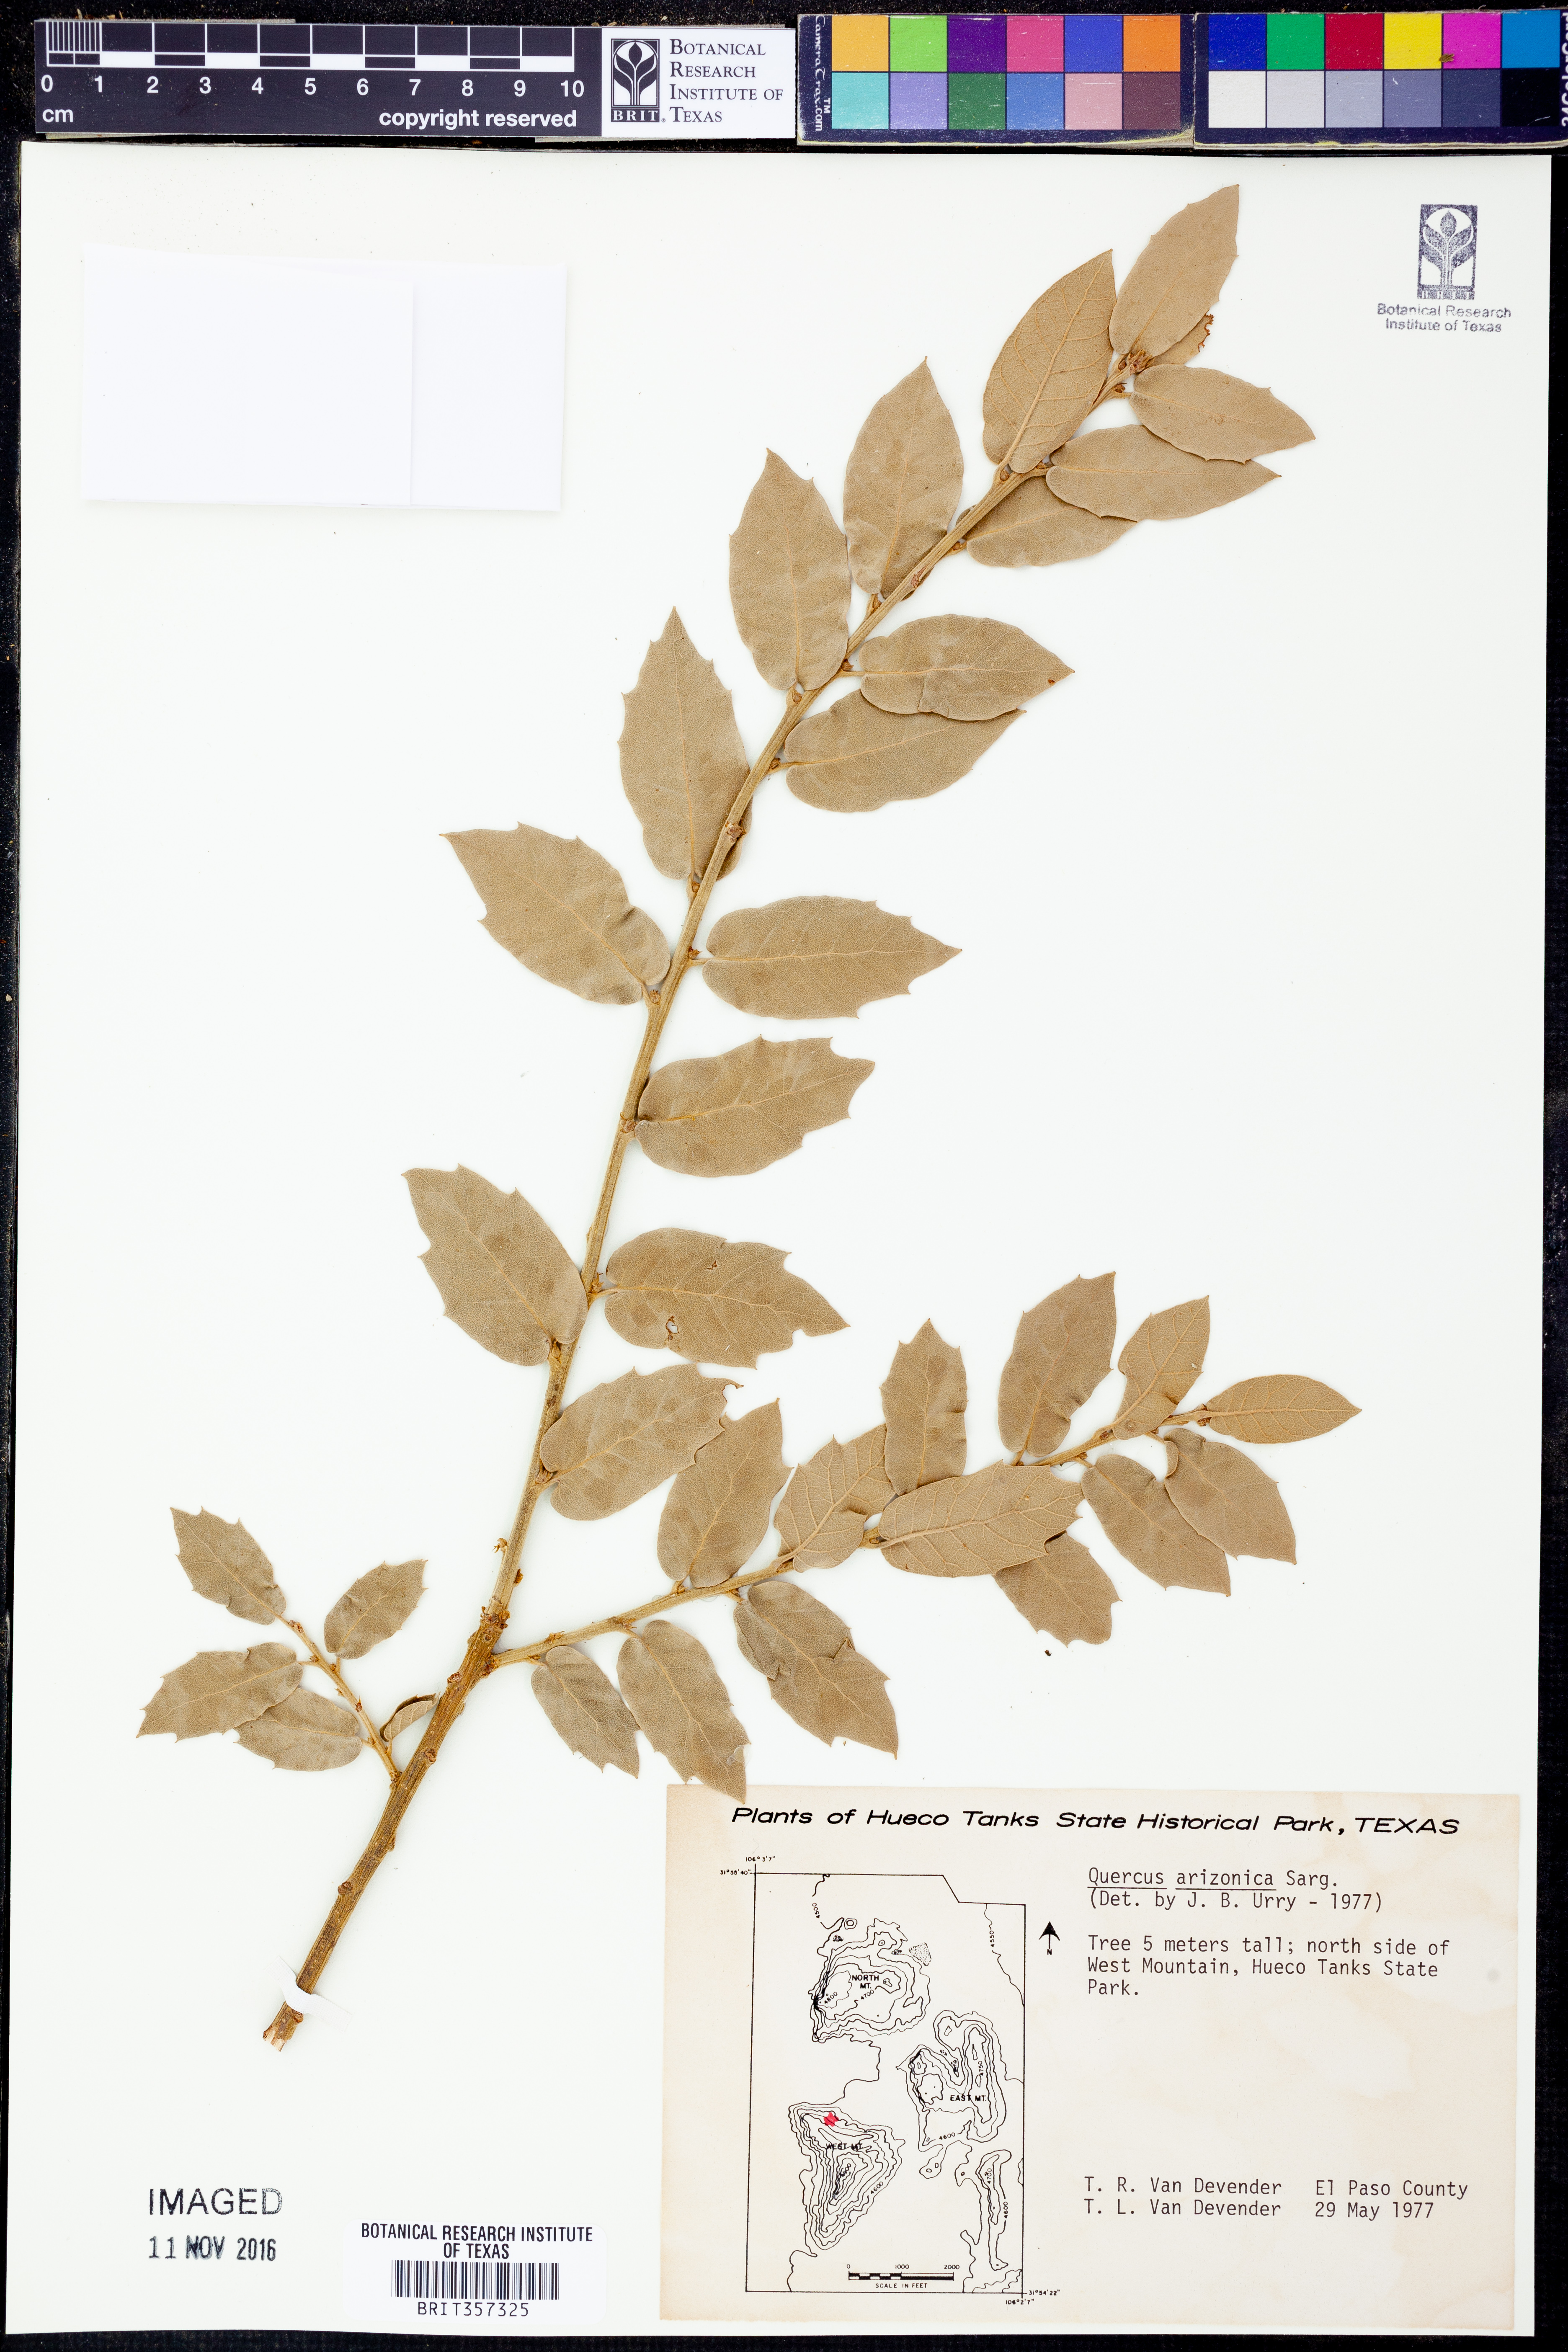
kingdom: Plantae
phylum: Tracheophyta
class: Magnoliopsida
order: Fagales
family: Fagaceae
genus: Quercus
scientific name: Quercus arizonica
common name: Arizona white oak
